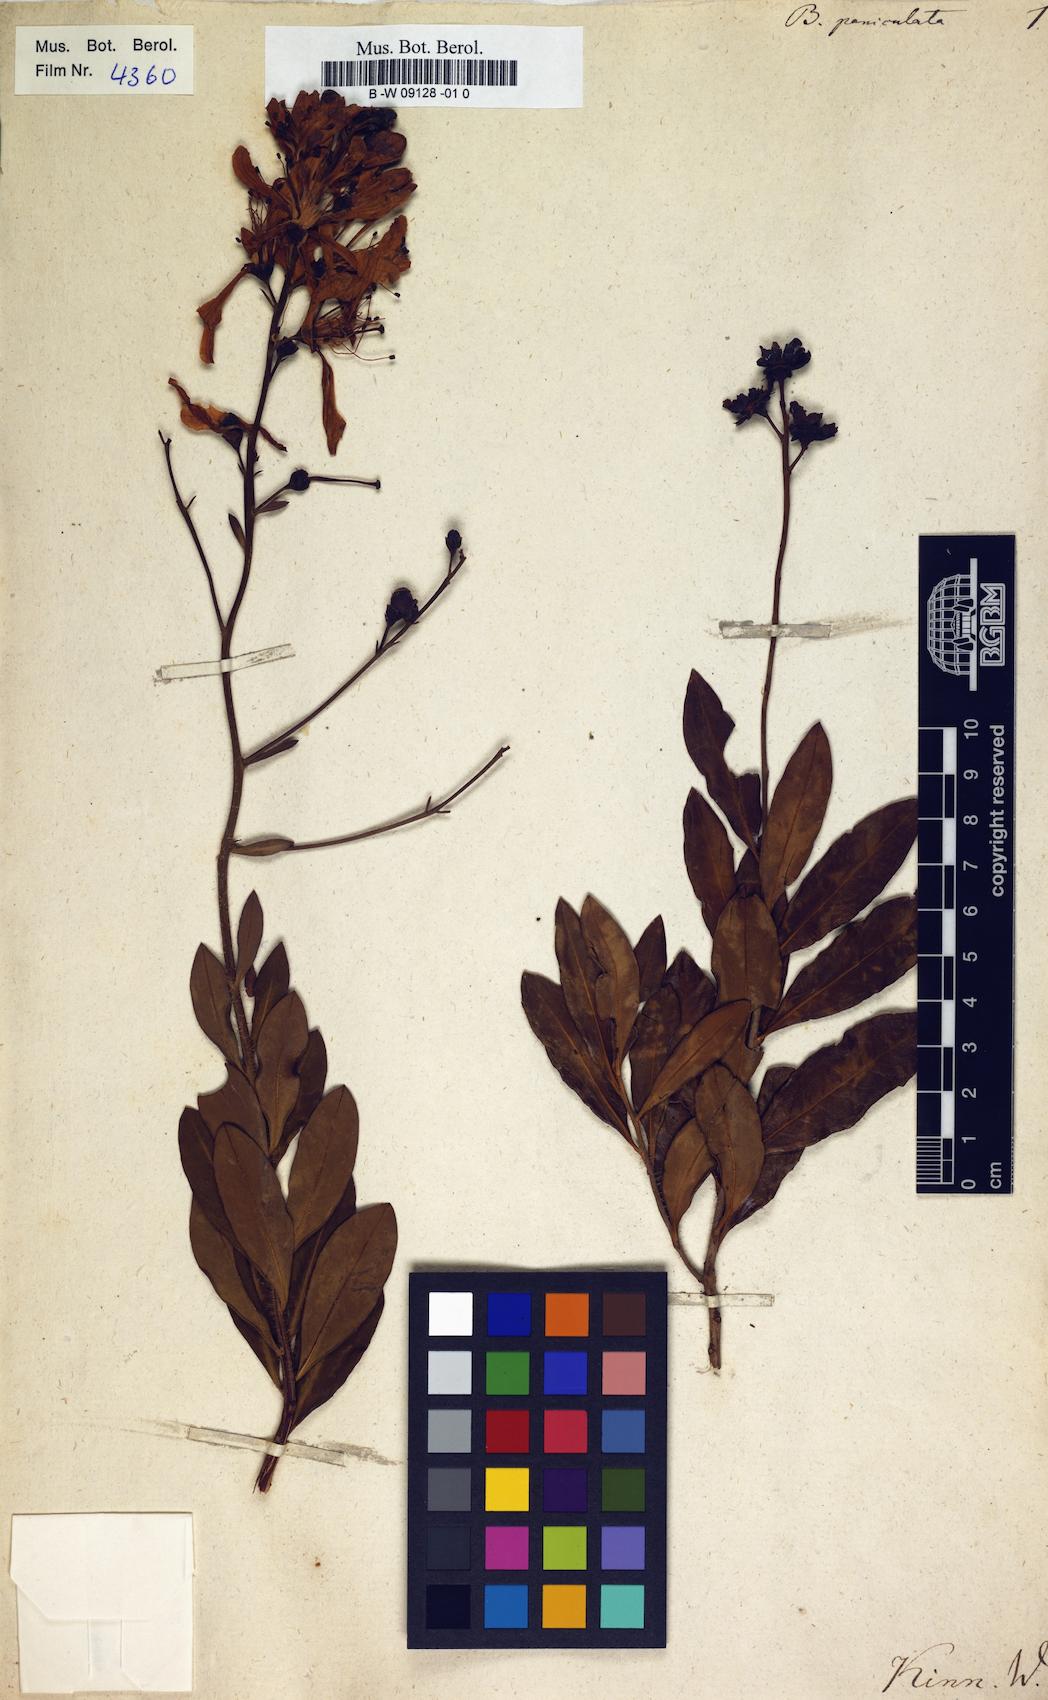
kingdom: Plantae
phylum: Tracheophyta
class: Magnoliopsida
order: Ericales
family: Ericaceae
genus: Bejaria
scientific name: Bejaria racemosa
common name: Tarflower
